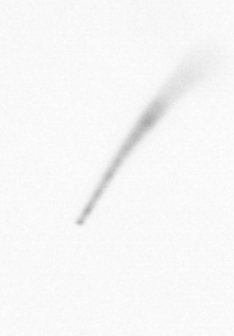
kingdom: Chromista
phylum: Ochrophyta
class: Bacillariophyceae
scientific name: Bacillariophyceae
